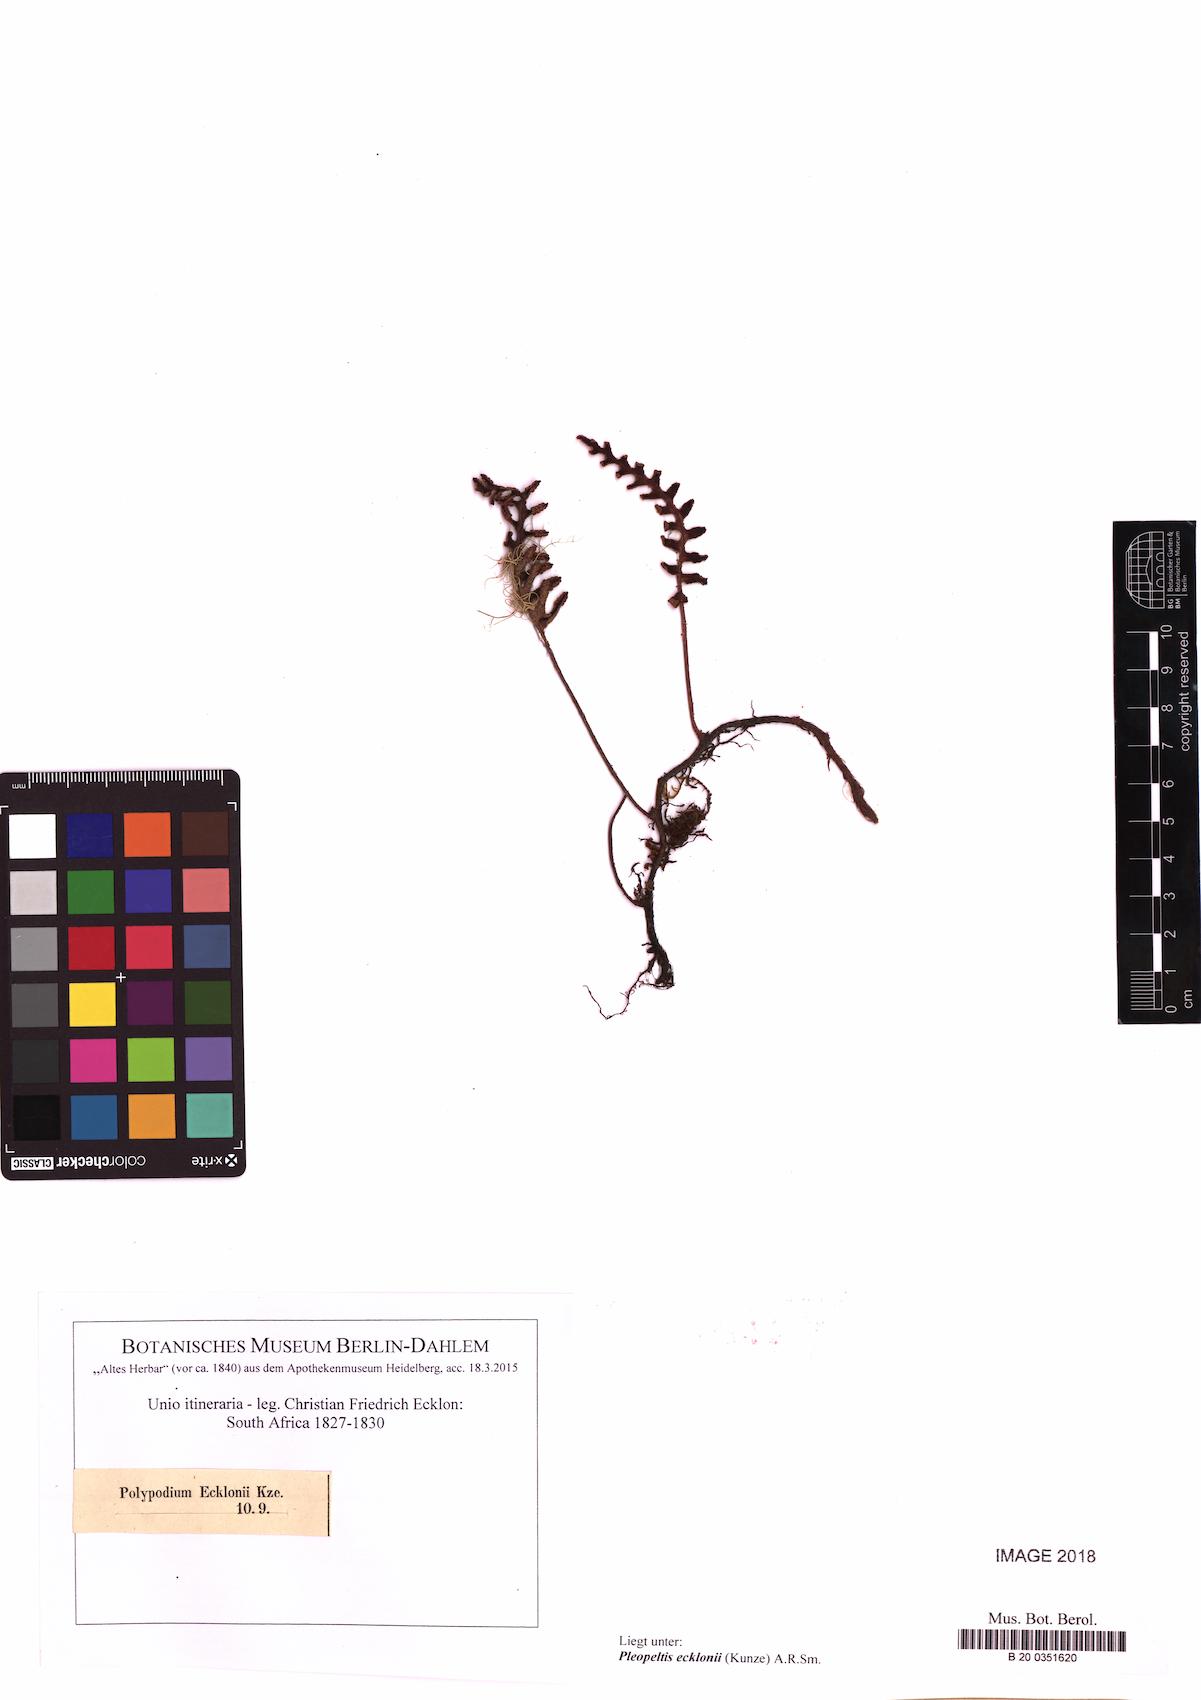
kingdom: Plantae
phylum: Tracheophyta
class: Polypodiopsida
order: Polypodiales
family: Polypodiaceae
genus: Pleopeltis
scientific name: Pleopeltis ecklonii
